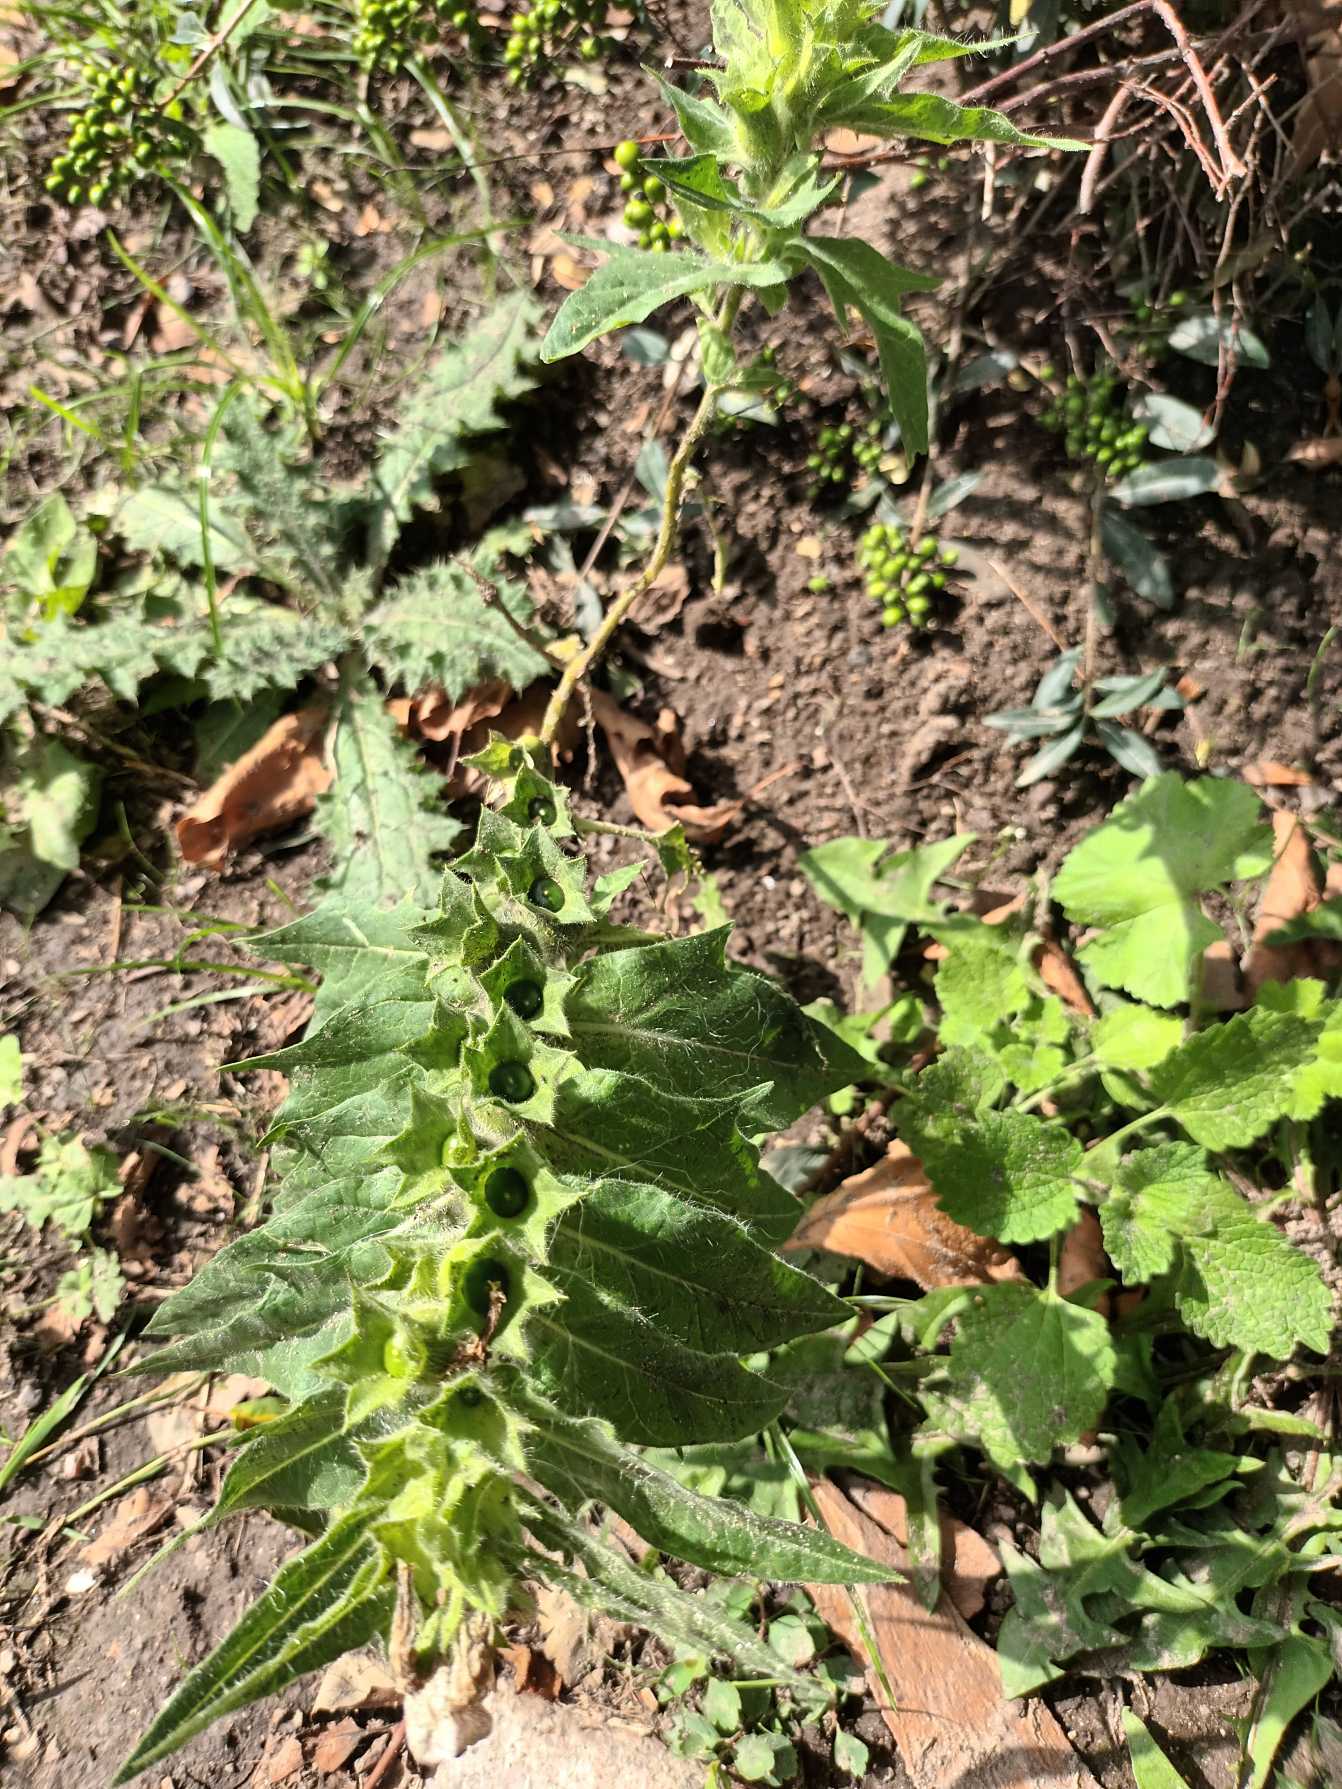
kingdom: Plantae
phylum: Tracheophyta
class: Magnoliopsida
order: Solanales
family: Solanaceae
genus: Hyoscyamus
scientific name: Hyoscyamus niger
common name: Bulmeurt
